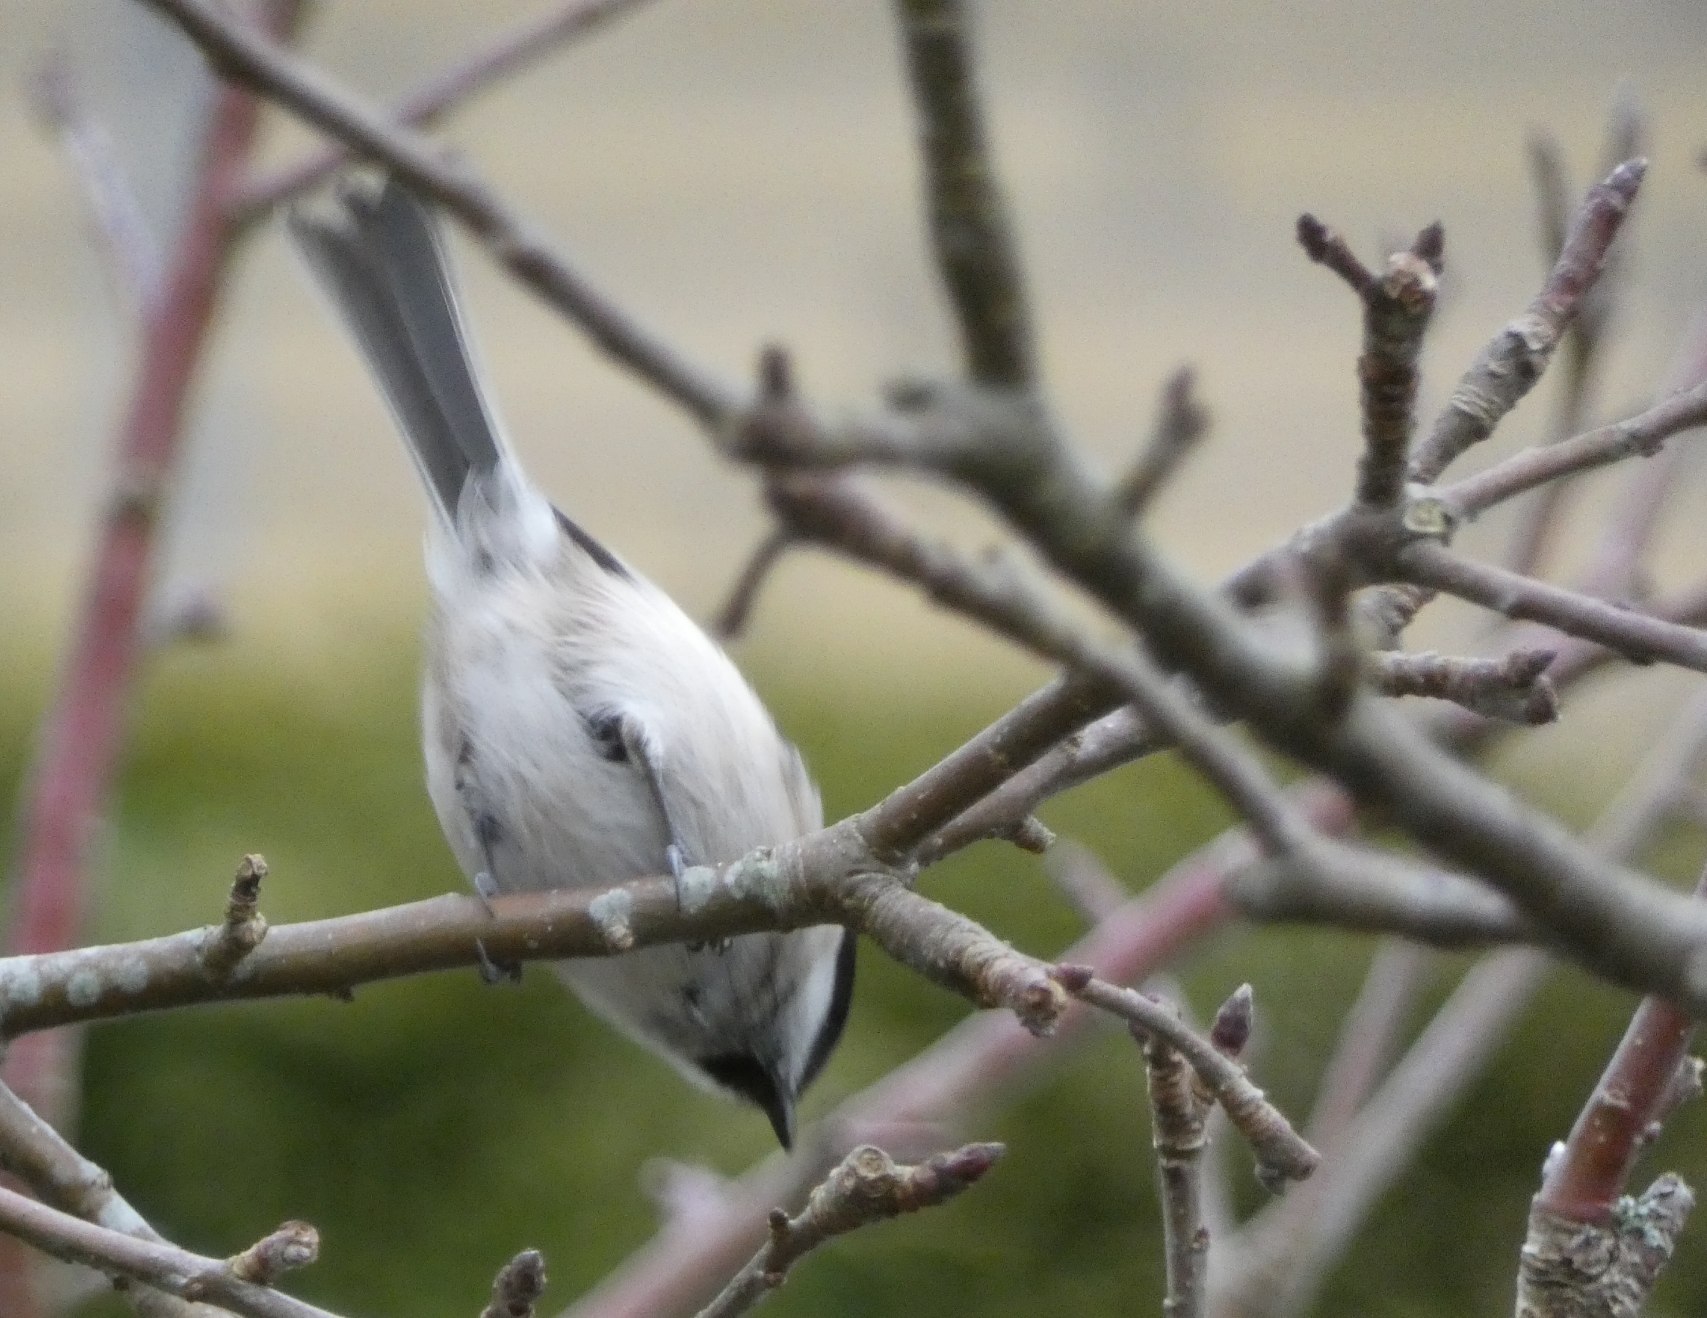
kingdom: Animalia
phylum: Chordata
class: Aves
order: Passeriformes
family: Paridae
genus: Poecile
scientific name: Poecile palustris
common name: Sumpmejse
